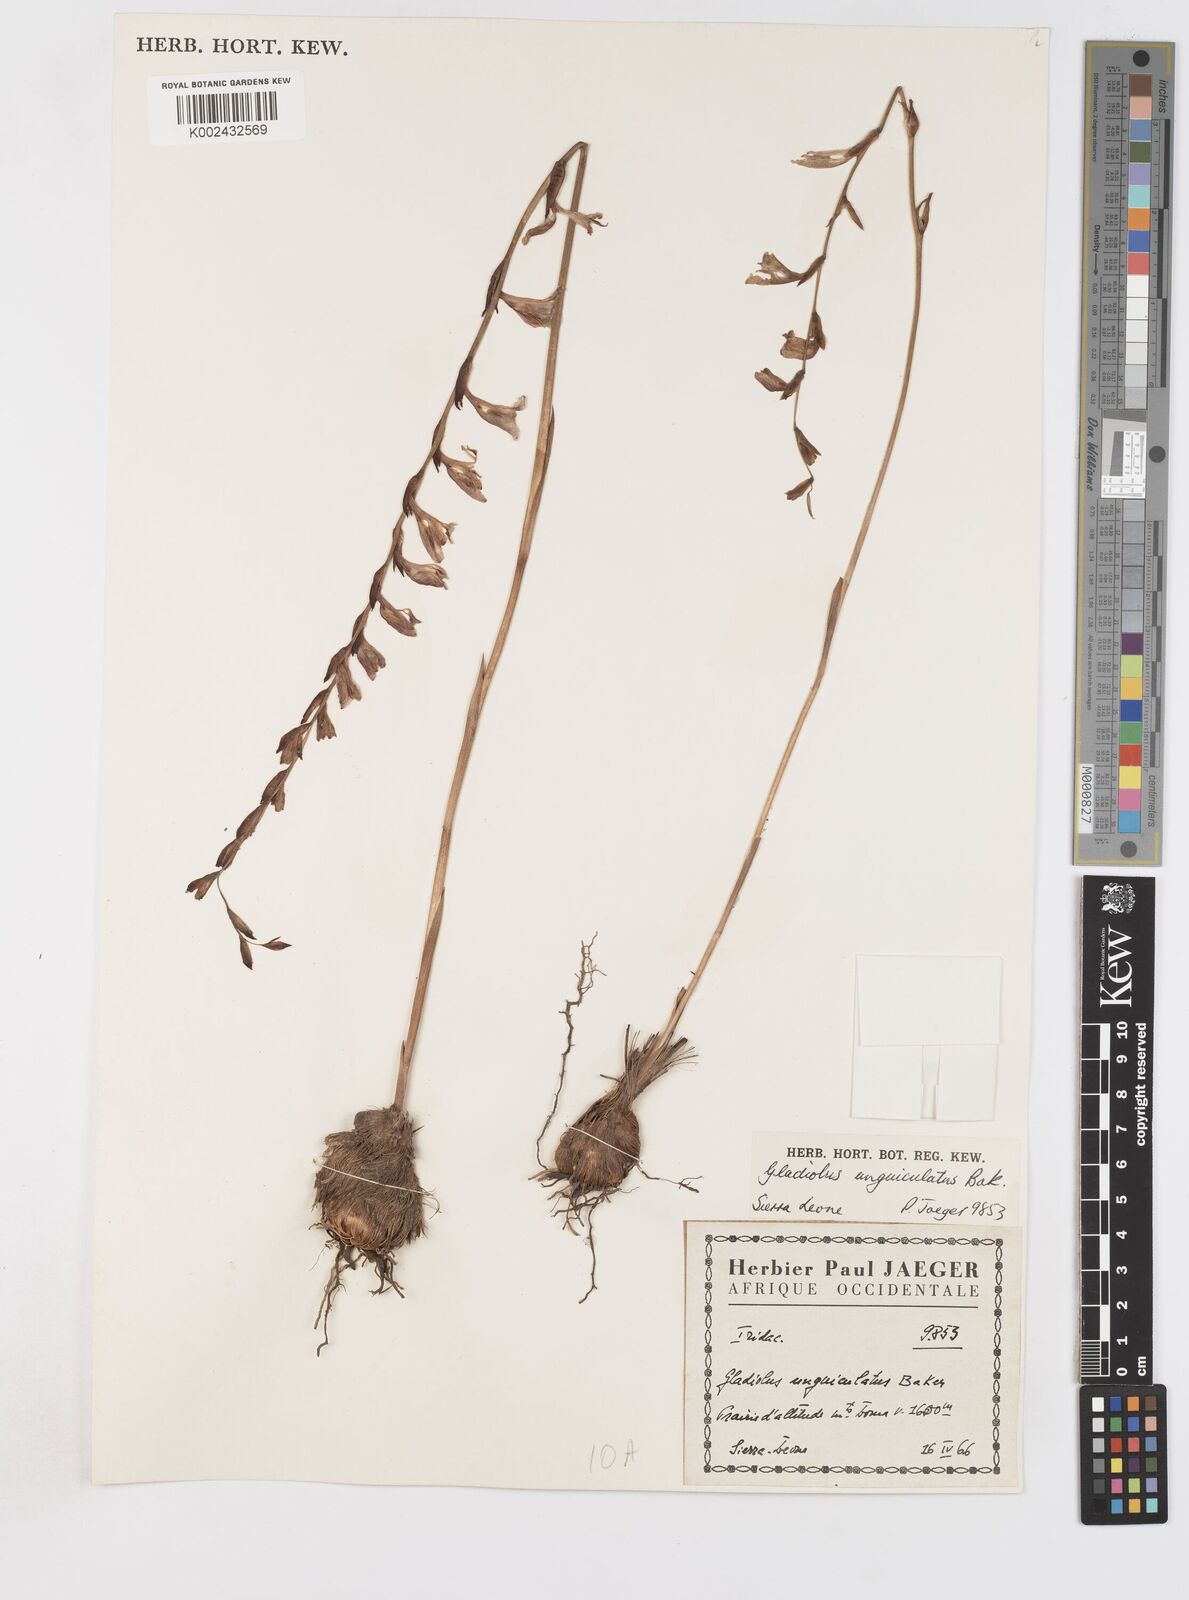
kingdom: Plantae
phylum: Tracheophyta
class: Liliopsida
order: Asparagales
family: Iridaceae
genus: Gladiolus
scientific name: Gladiolus unguiculatus
